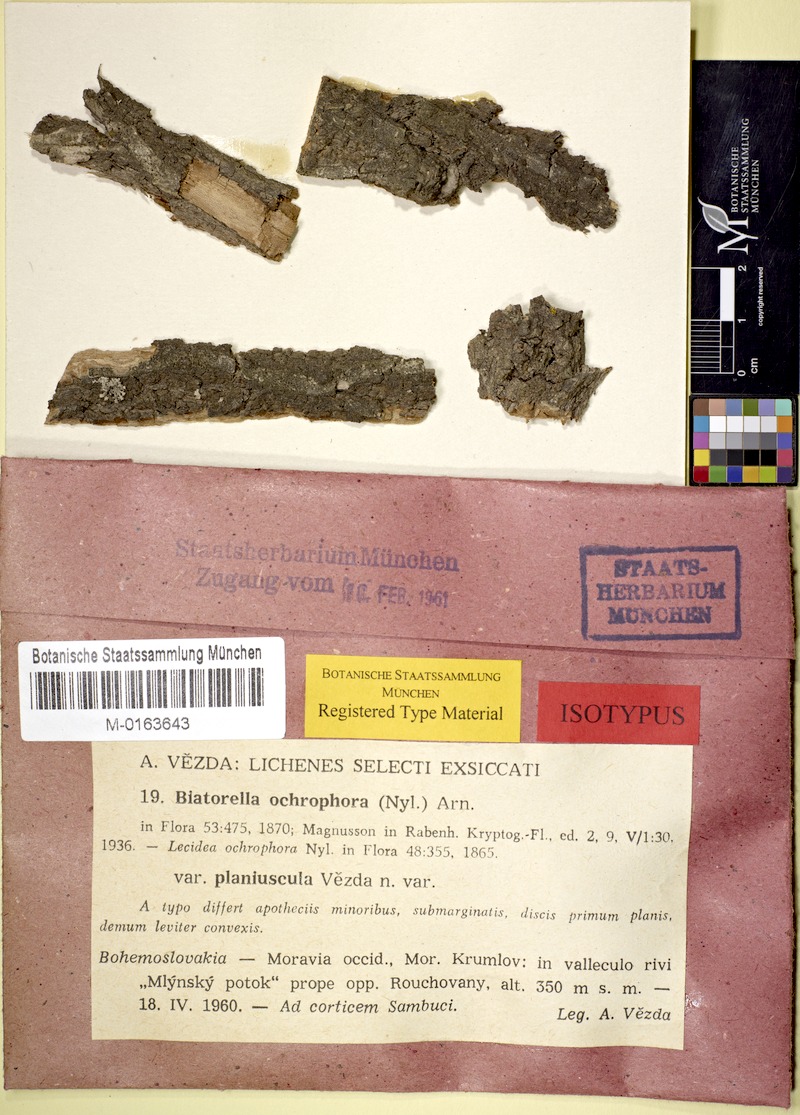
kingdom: Fungi
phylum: Ascomycota
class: Lecanoromycetes
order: Lecanorales
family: Biatorellaceae
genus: Piccolia
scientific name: Piccolia ochrophora
